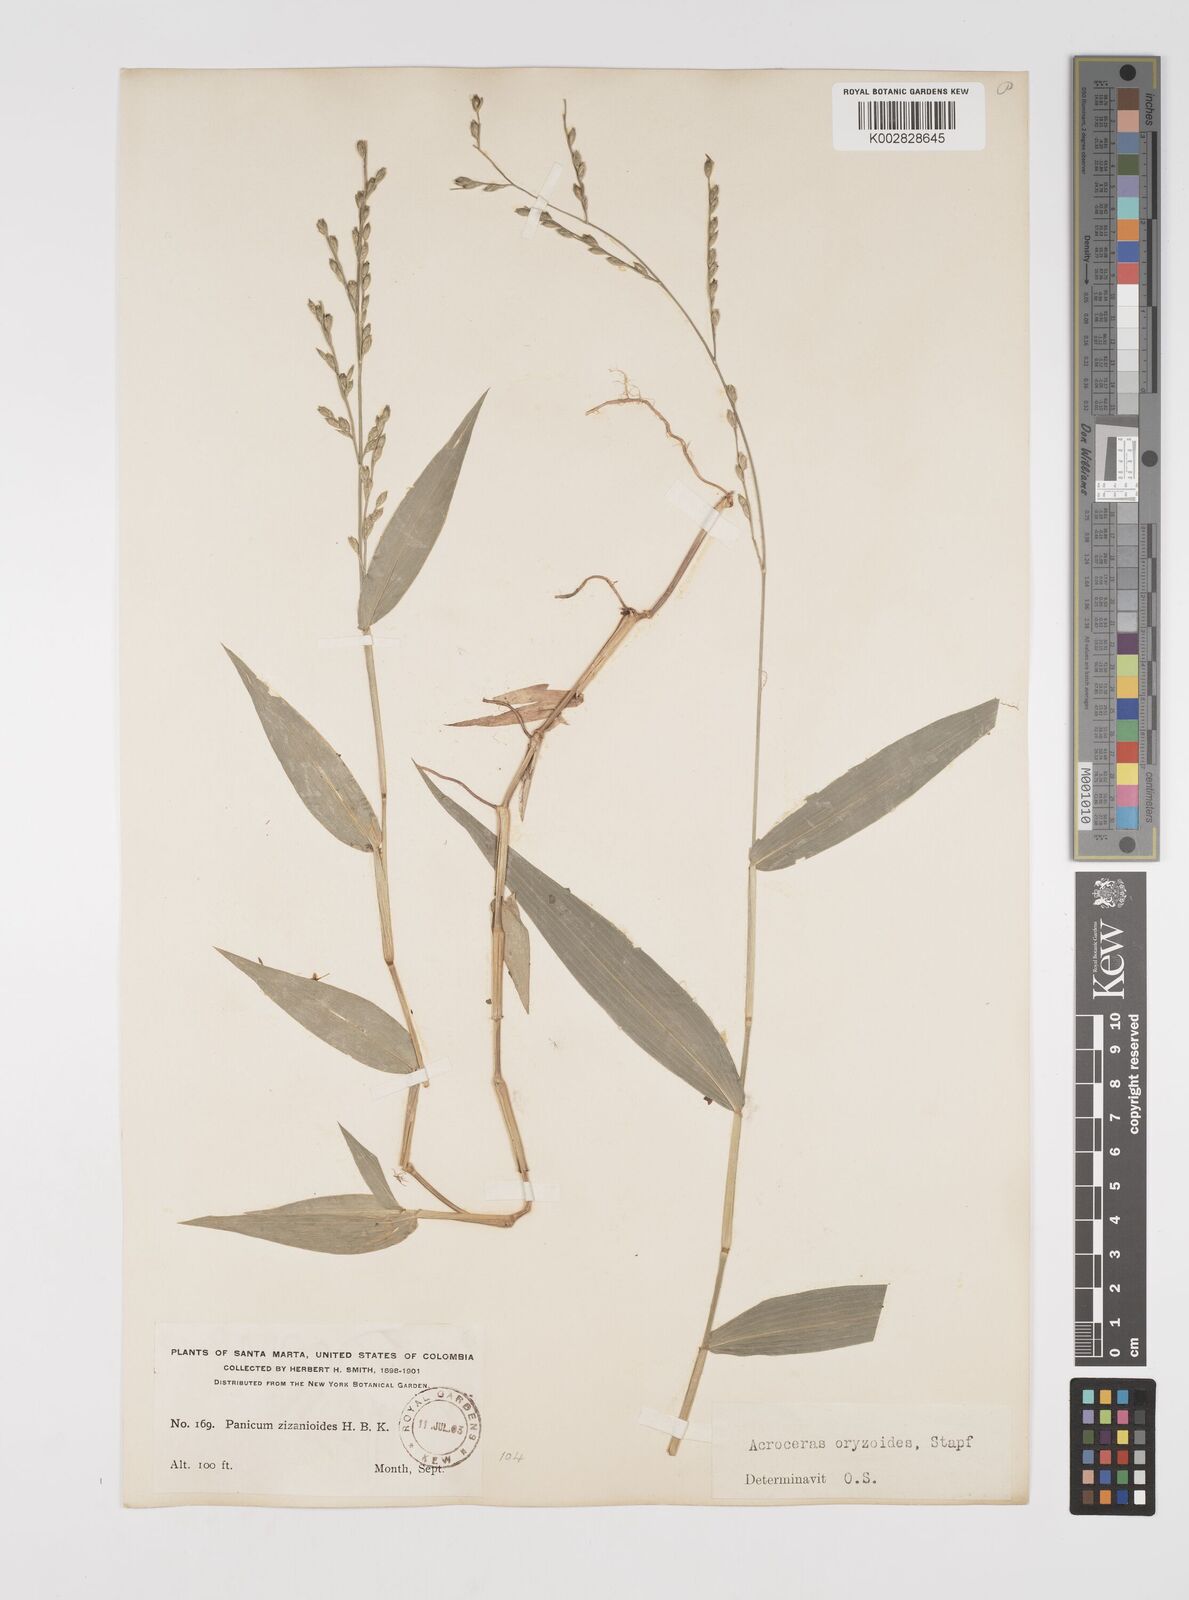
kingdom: Plantae
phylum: Tracheophyta
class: Liliopsida
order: Poales
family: Poaceae
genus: Acroceras
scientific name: Acroceras zizanioides
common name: Oat grass
